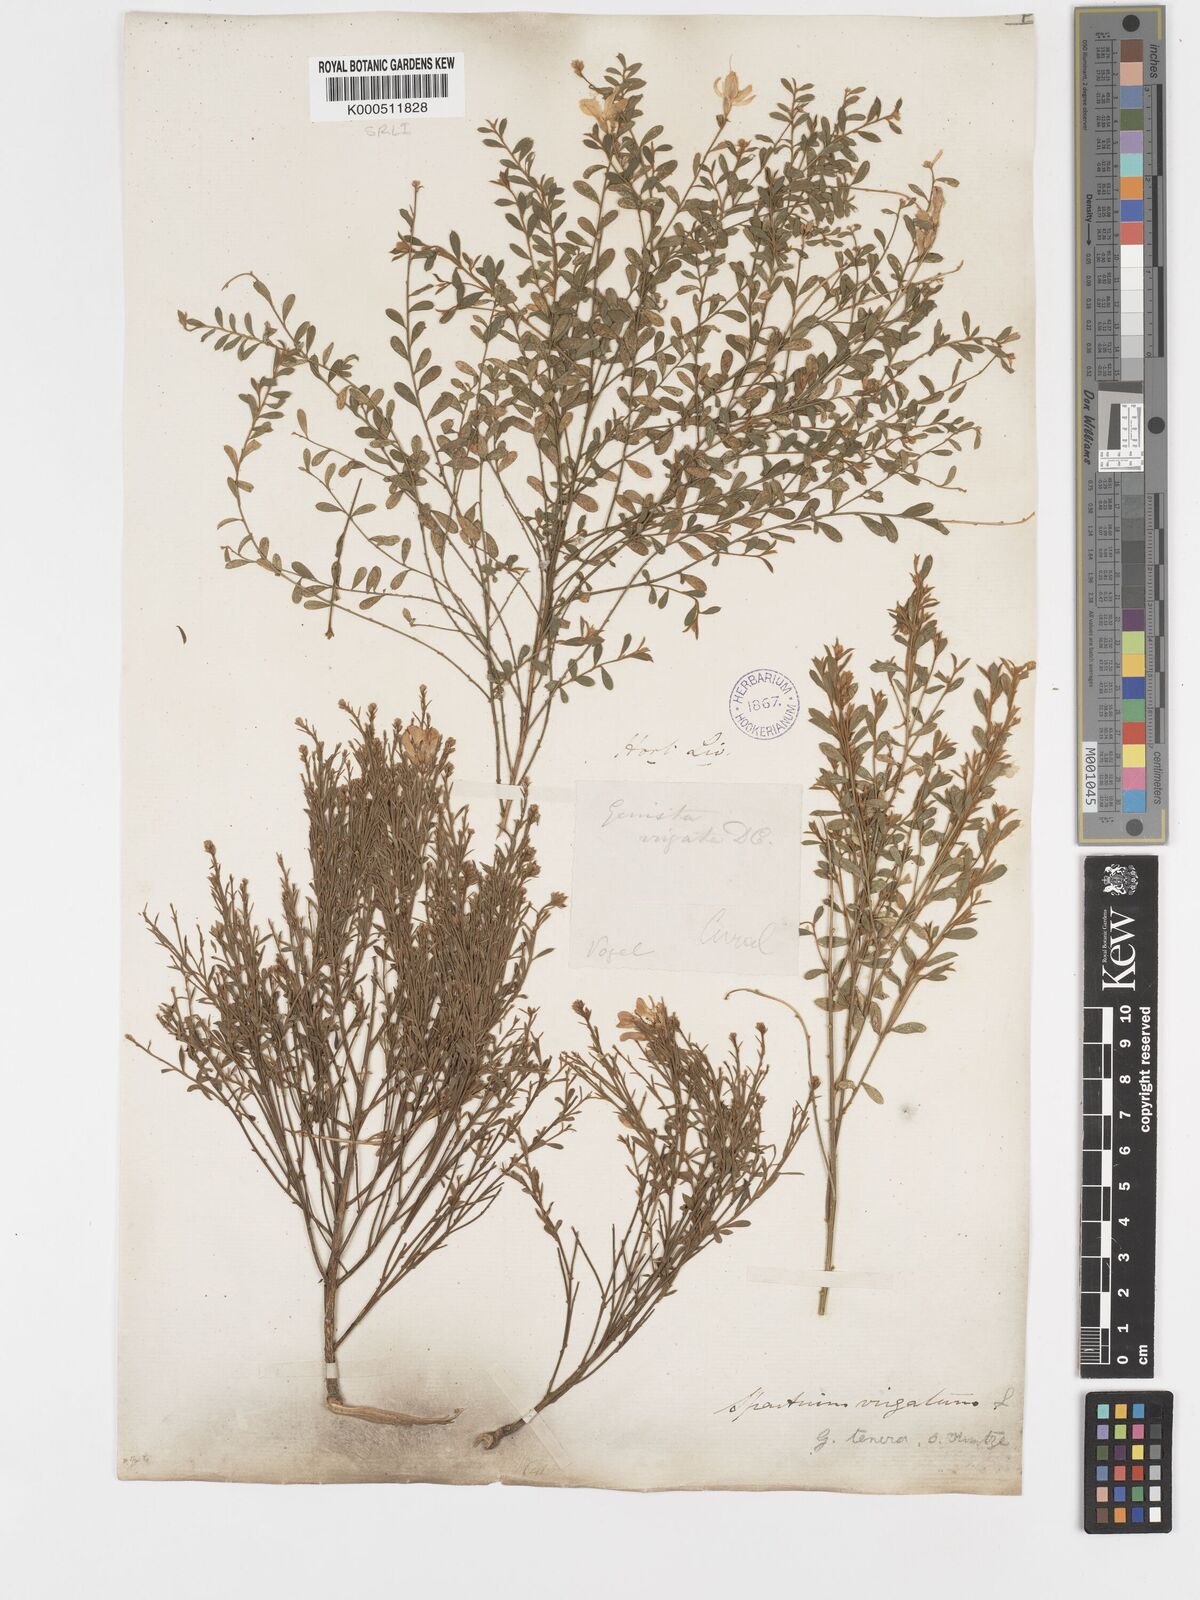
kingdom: Plantae
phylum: Tracheophyta
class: Magnoliopsida
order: Fabales
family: Fabaceae
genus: Genista
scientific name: Genista tenera
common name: Madeira broom
